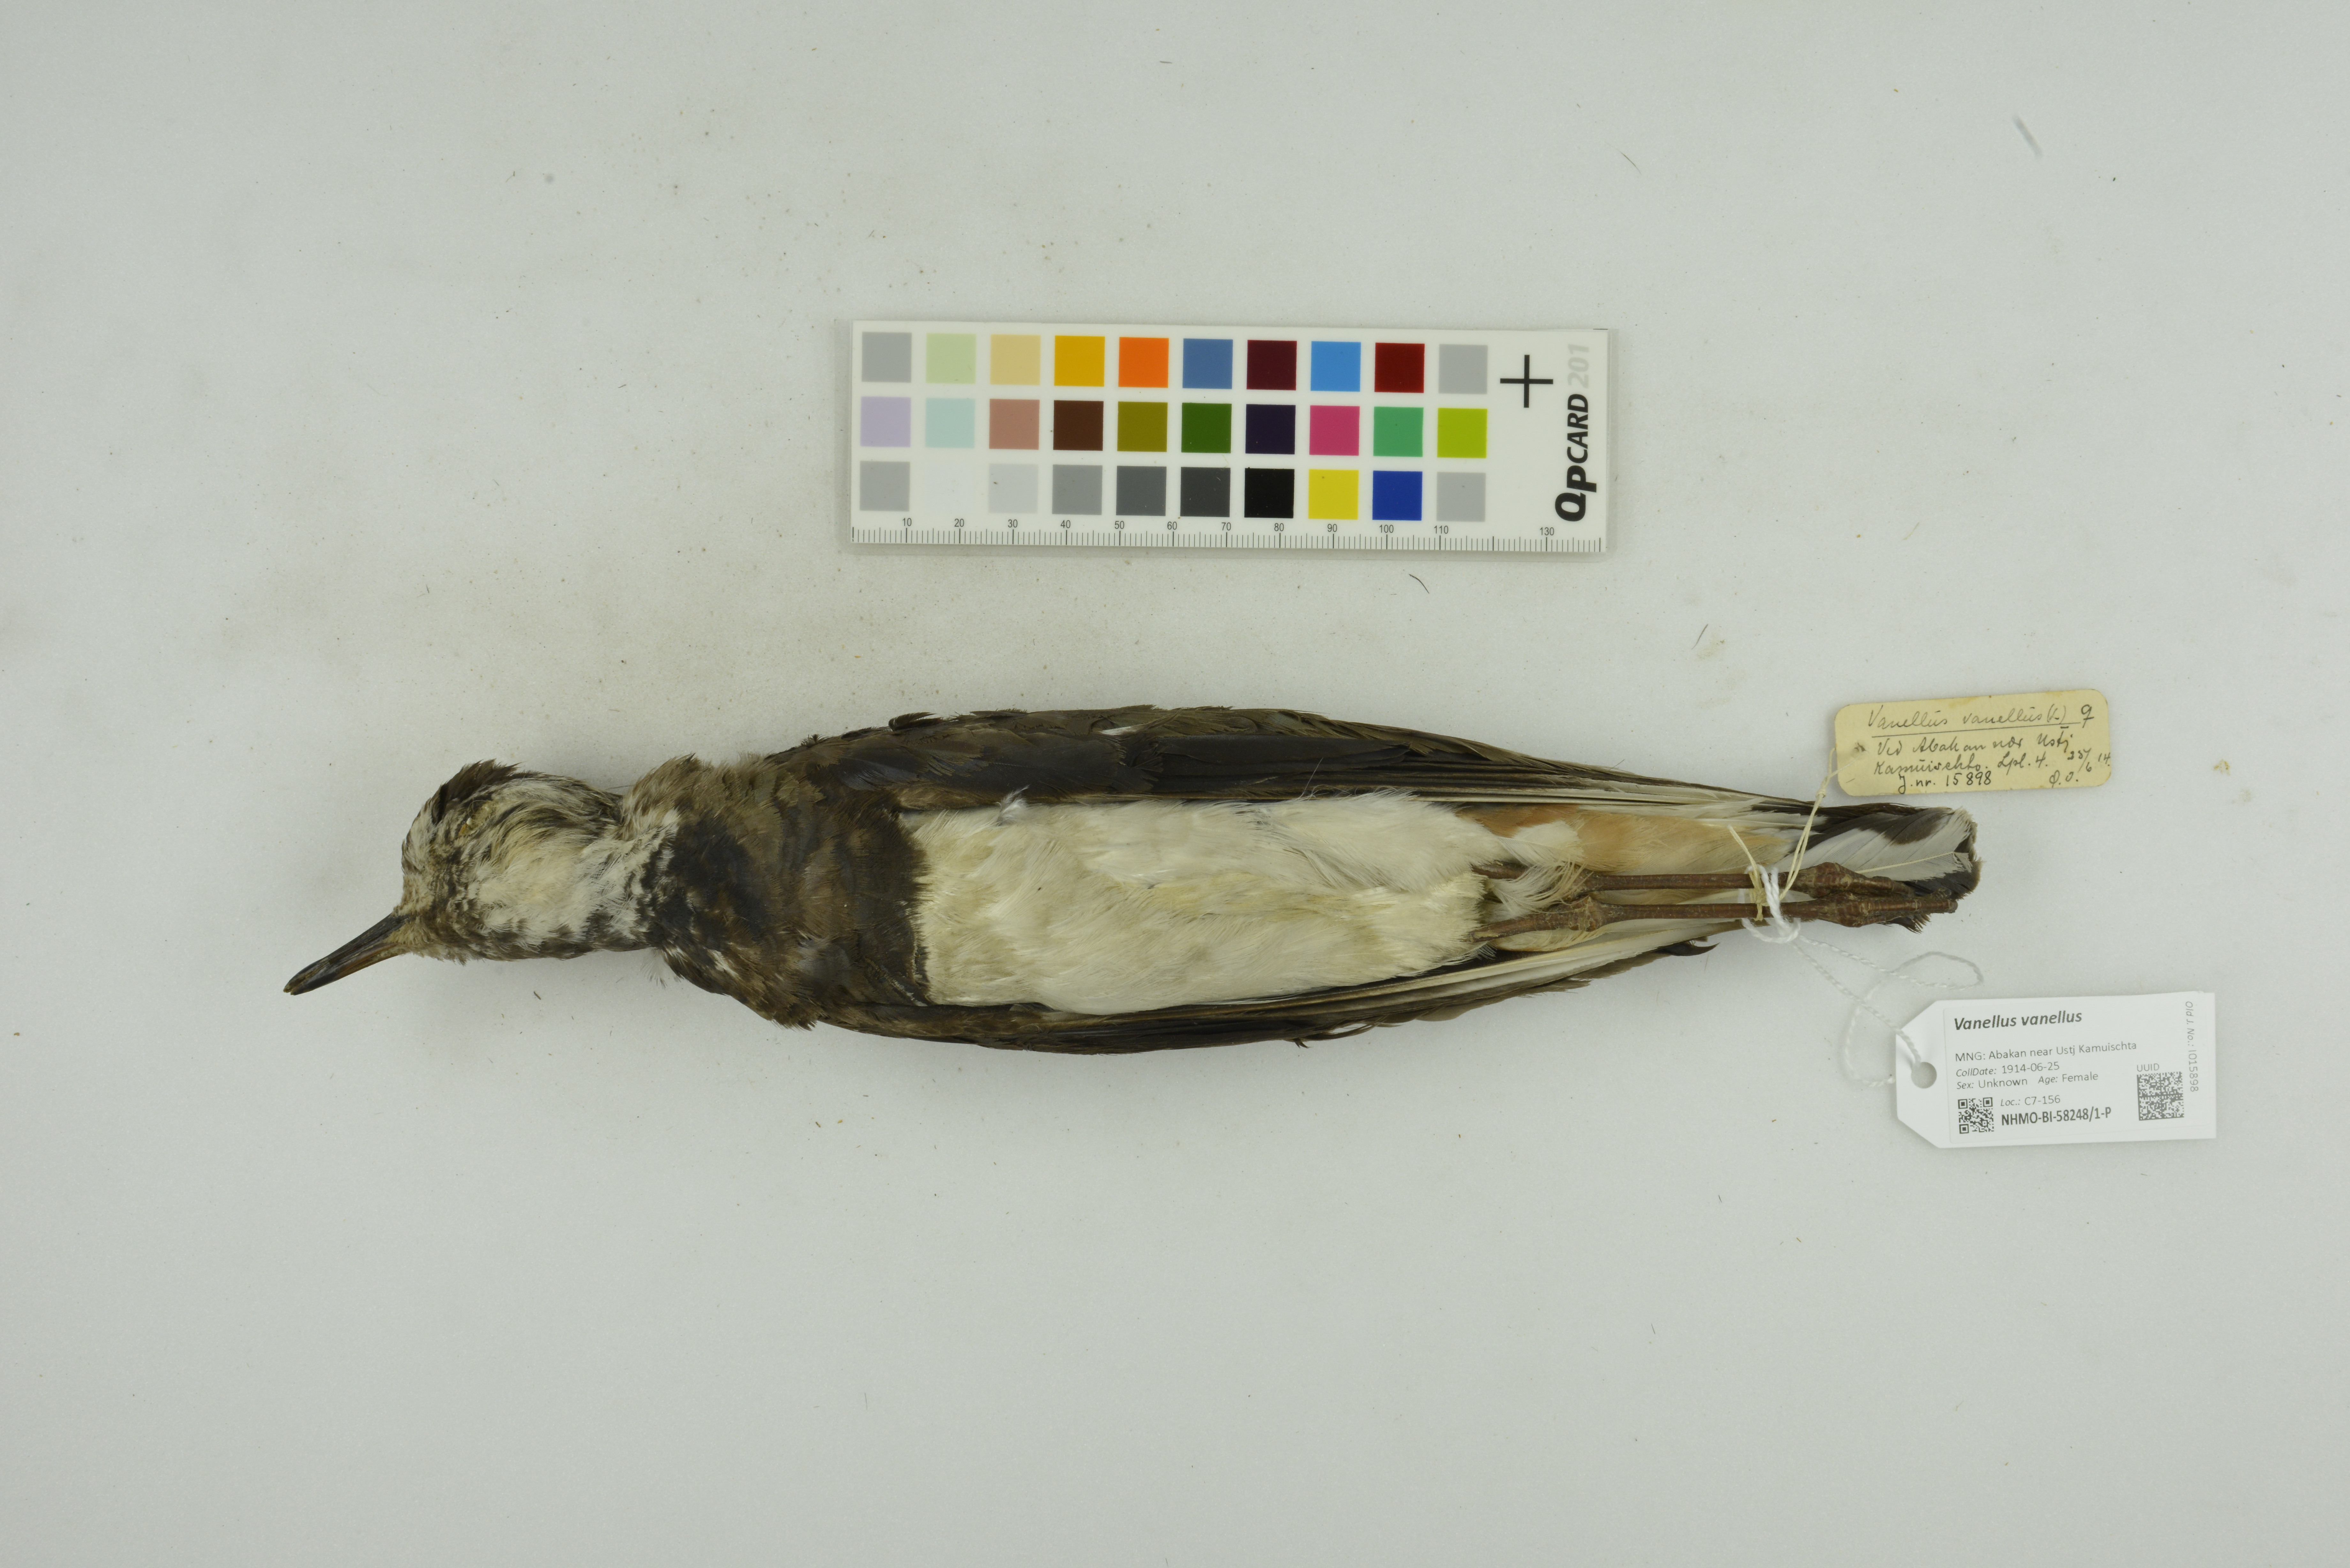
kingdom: Animalia
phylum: Chordata
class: Aves
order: Charadriiformes
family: Charadriidae
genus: Vanellus
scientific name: Vanellus vanellus
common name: Northern lapwing
